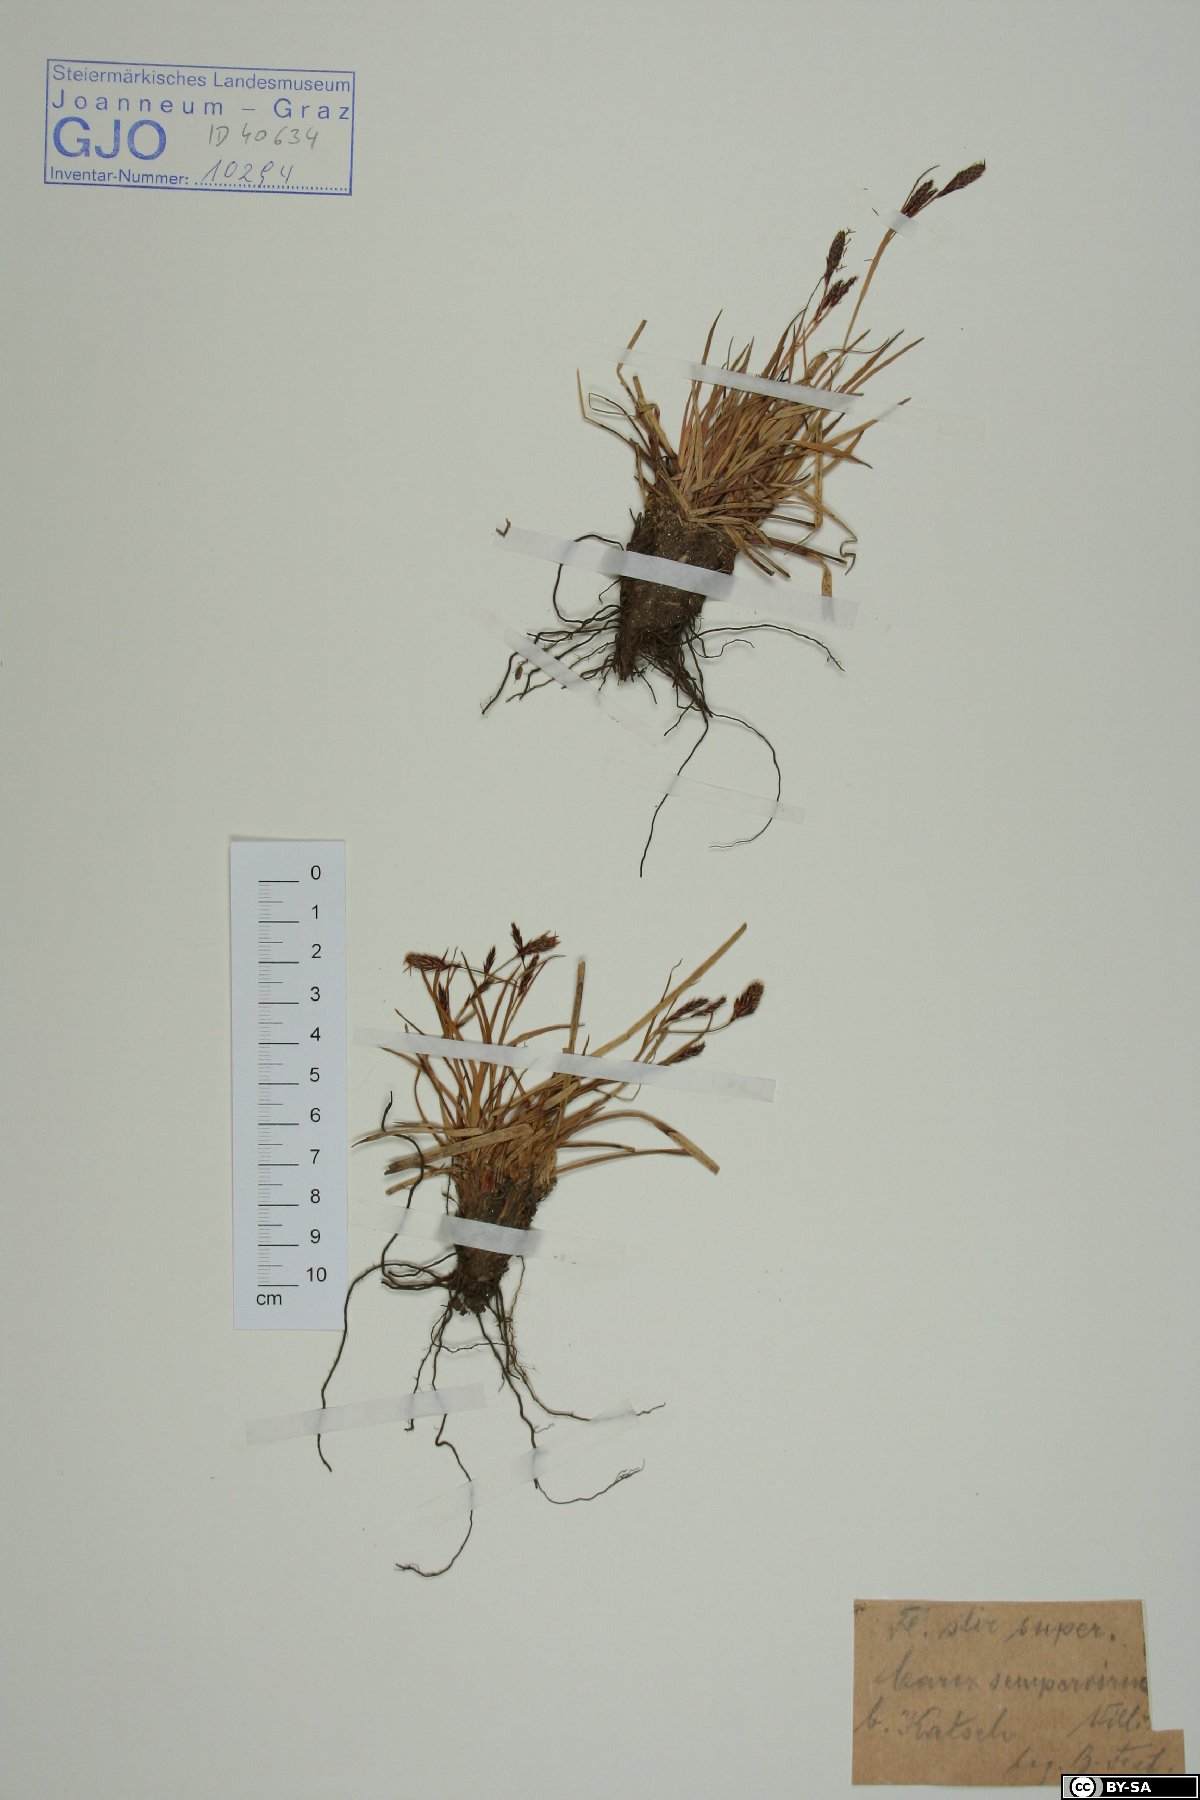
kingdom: Plantae
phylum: Tracheophyta
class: Liliopsida
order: Poales
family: Cyperaceae
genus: Carex
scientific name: Carex sempervirens
